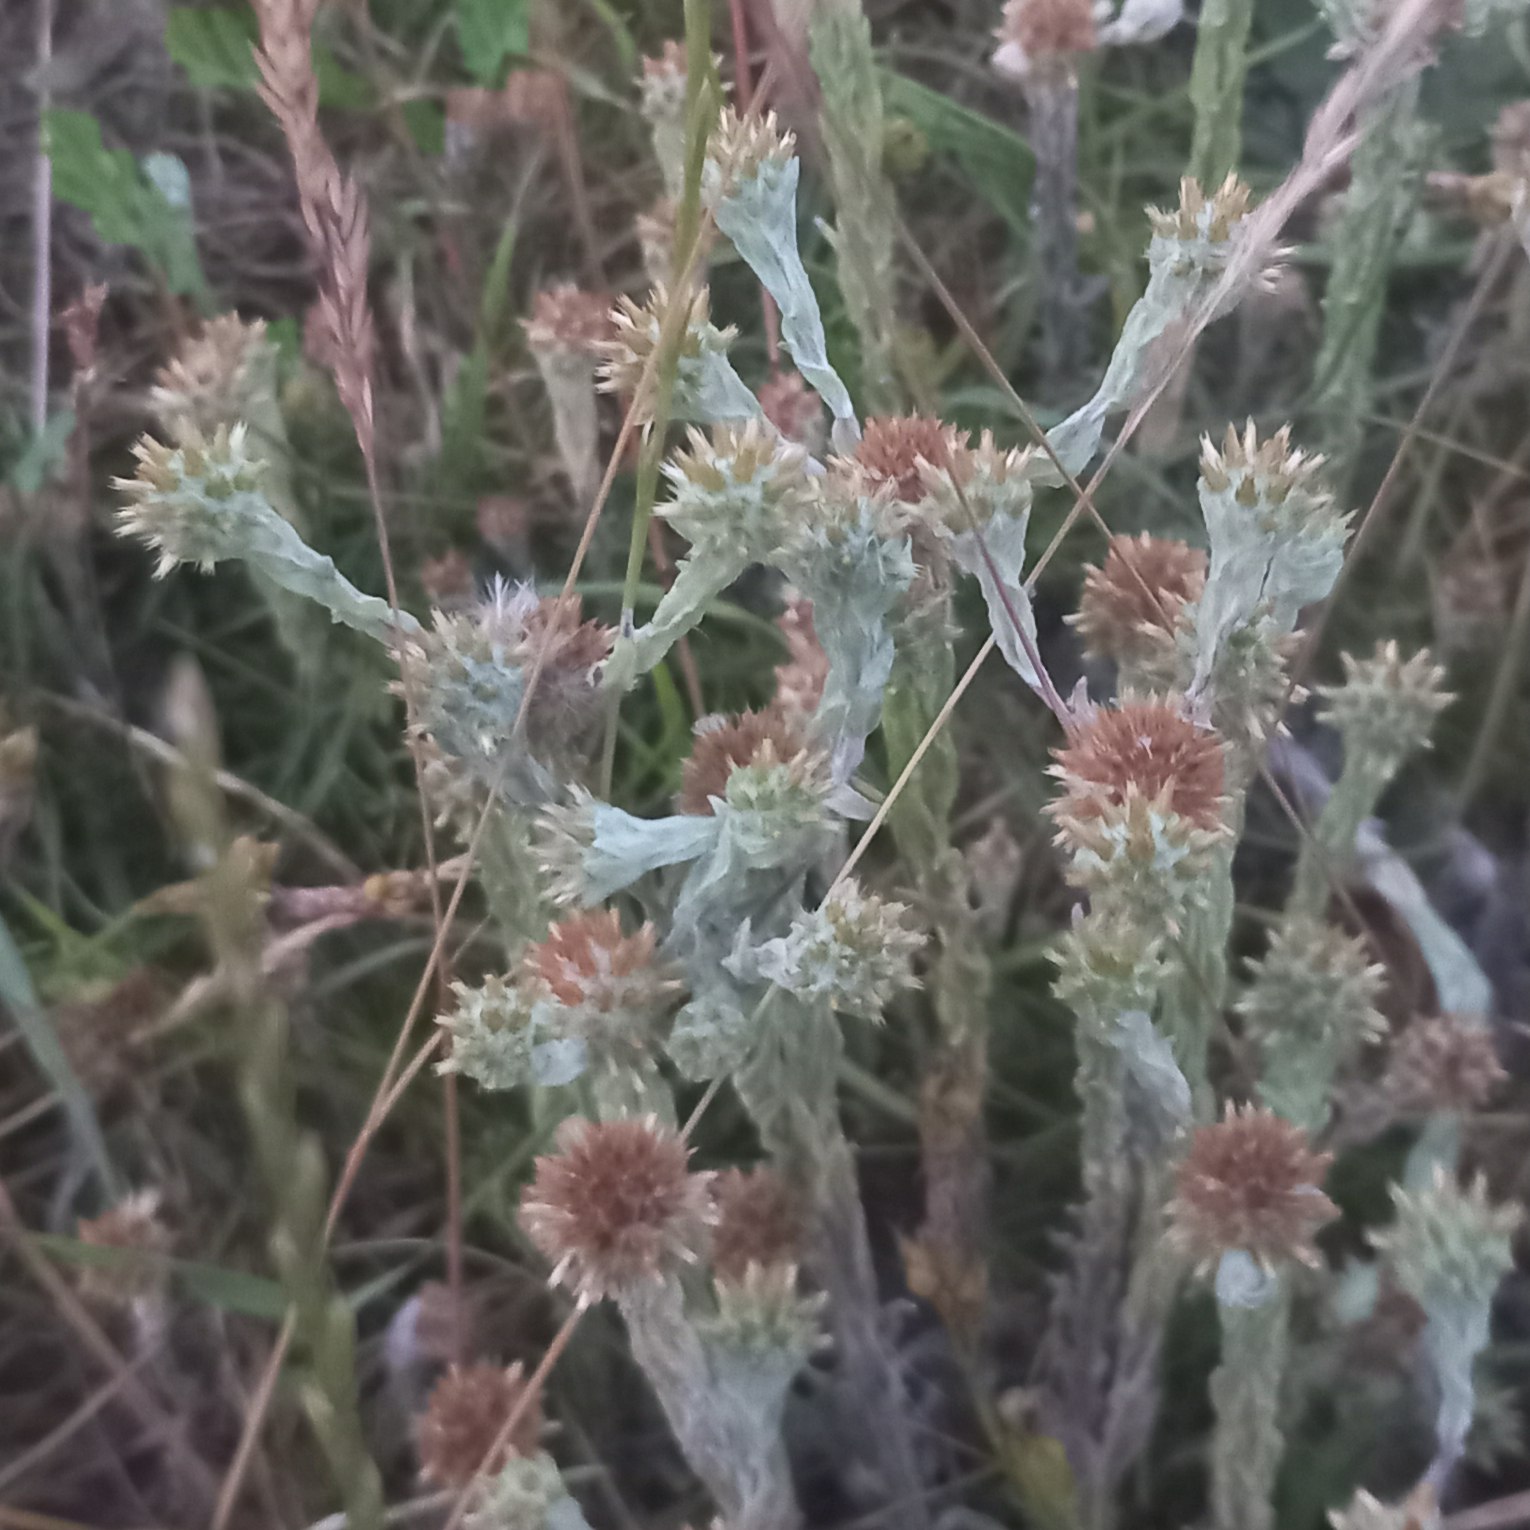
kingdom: Plantae
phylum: Tracheophyta
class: Magnoliopsida
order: Asterales
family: Asteraceae
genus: Filago
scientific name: Filago germanica
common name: Kugle-museurt
